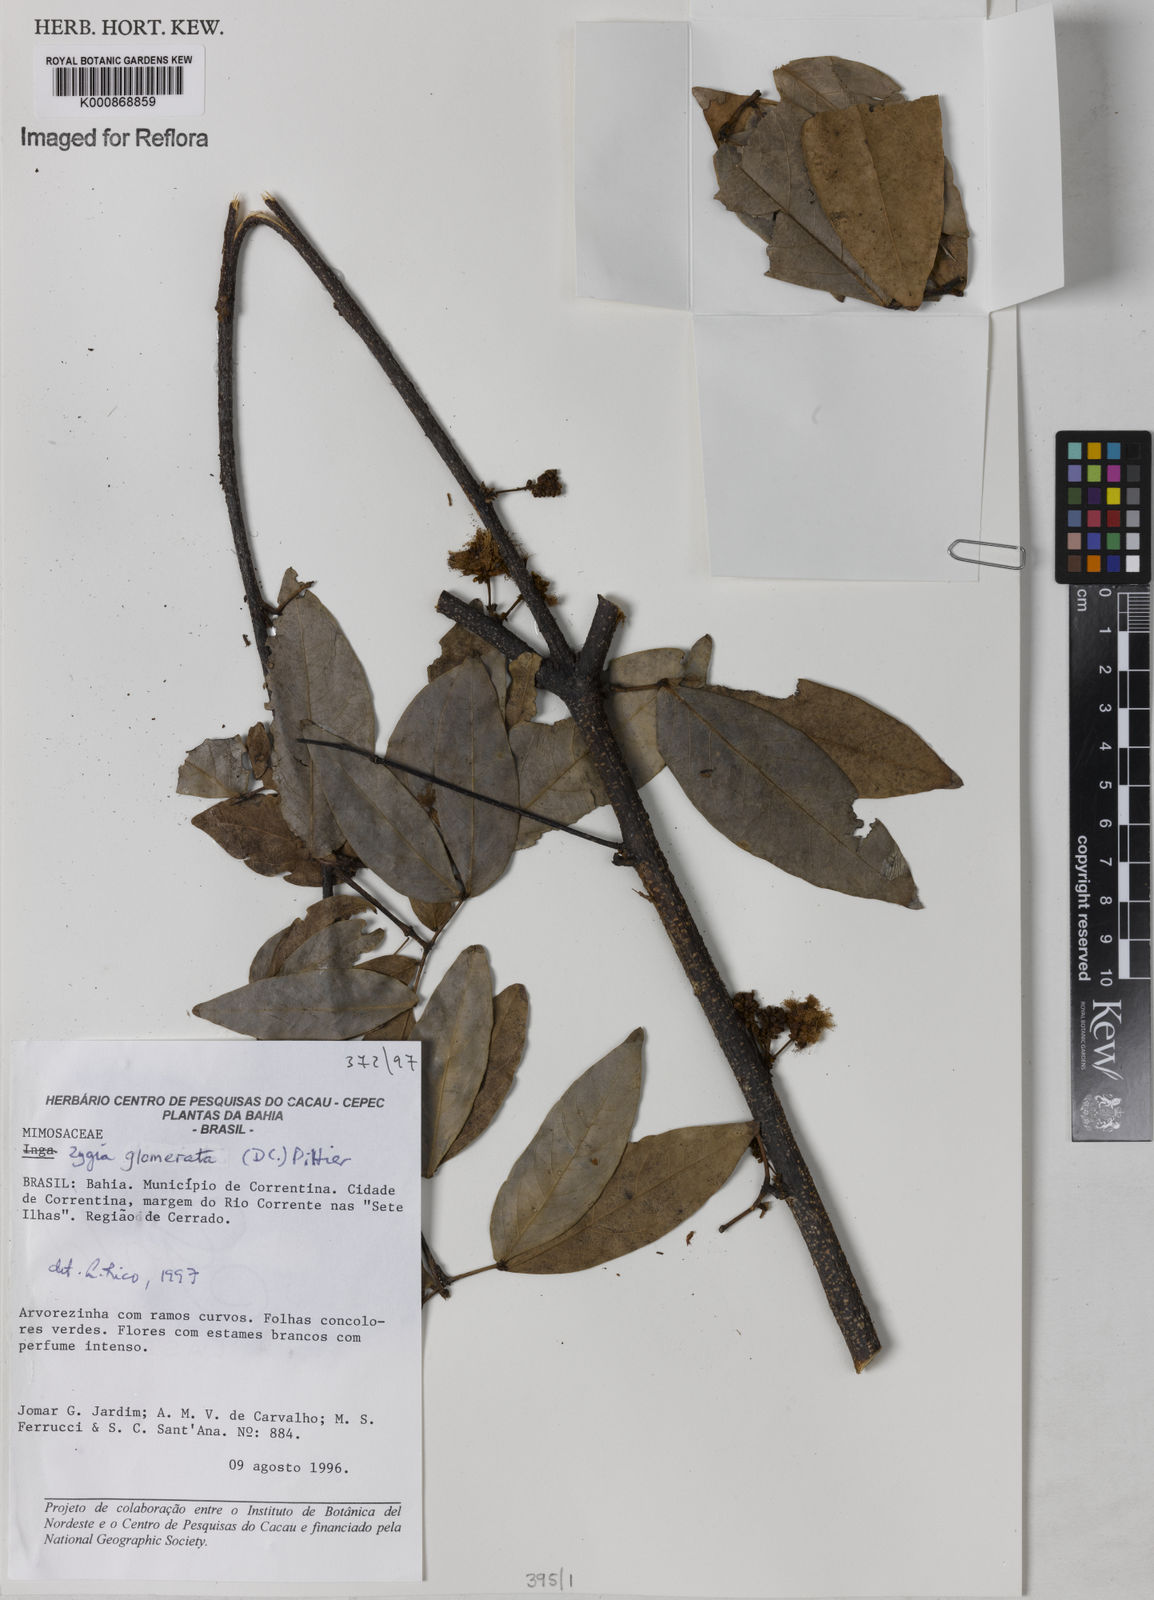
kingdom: Plantae
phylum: Tracheophyta
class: Magnoliopsida
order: Fabales
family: Fabaceae
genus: Zygia
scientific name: Zygia cataractae
